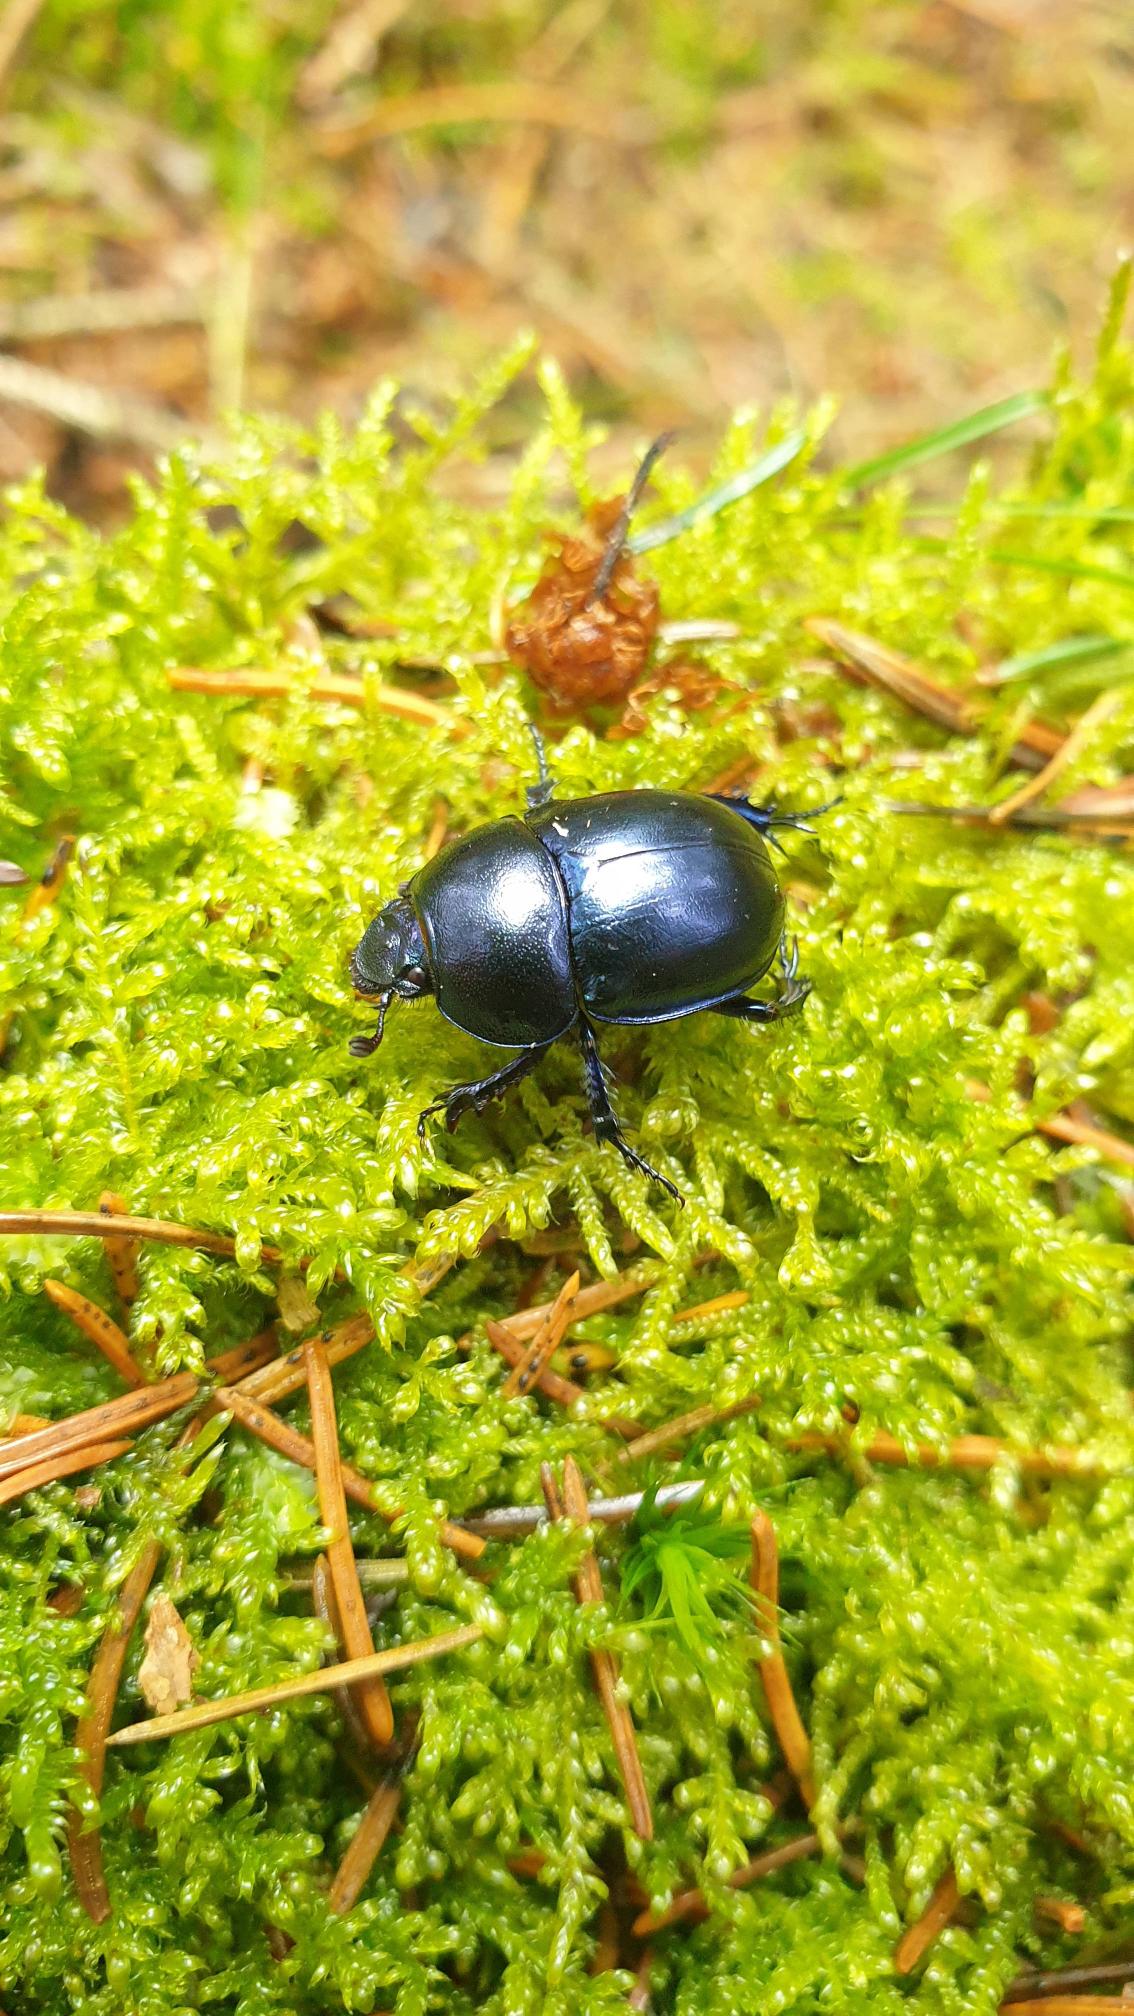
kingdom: Animalia
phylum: Arthropoda
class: Insecta
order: Coleoptera
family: Geotrupidae
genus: Trypocopris
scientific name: Trypocopris vernalis
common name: Glat skarnbasse
